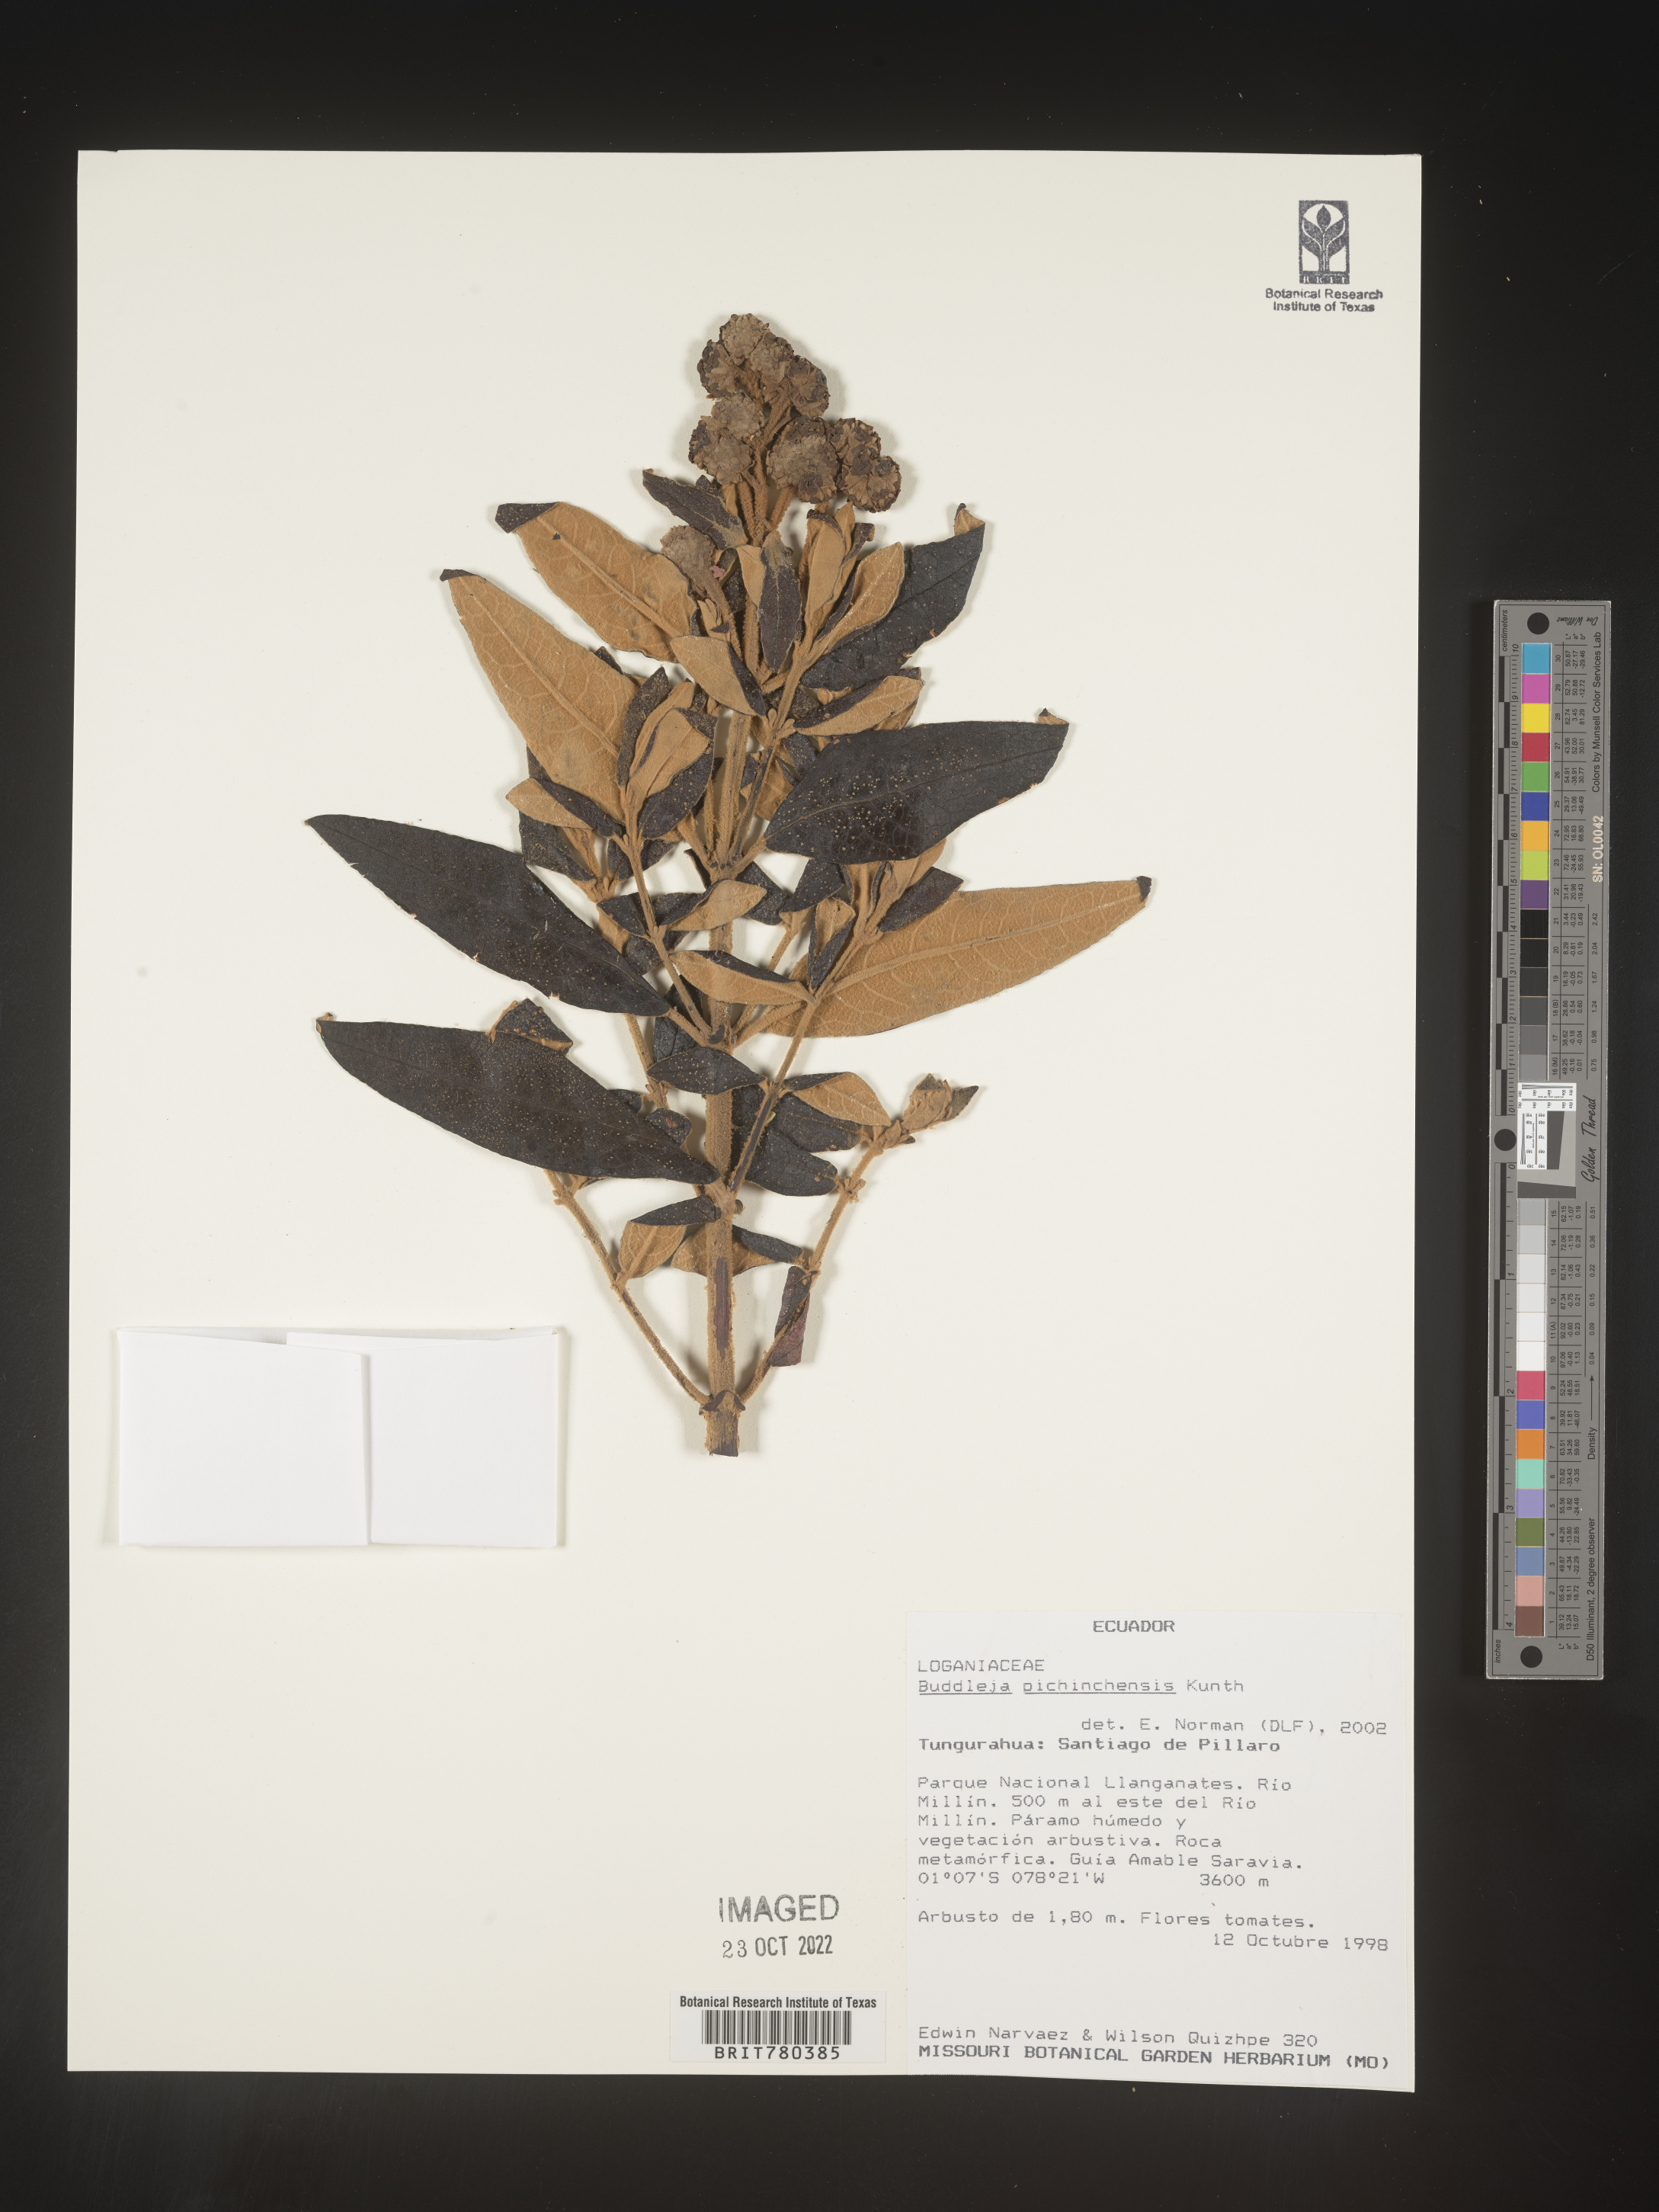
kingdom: Plantae
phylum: Tracheophyta
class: Magnoliopsida
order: Lamiales
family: Scrophulariaceae
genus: Buddleja
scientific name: Buddleja
